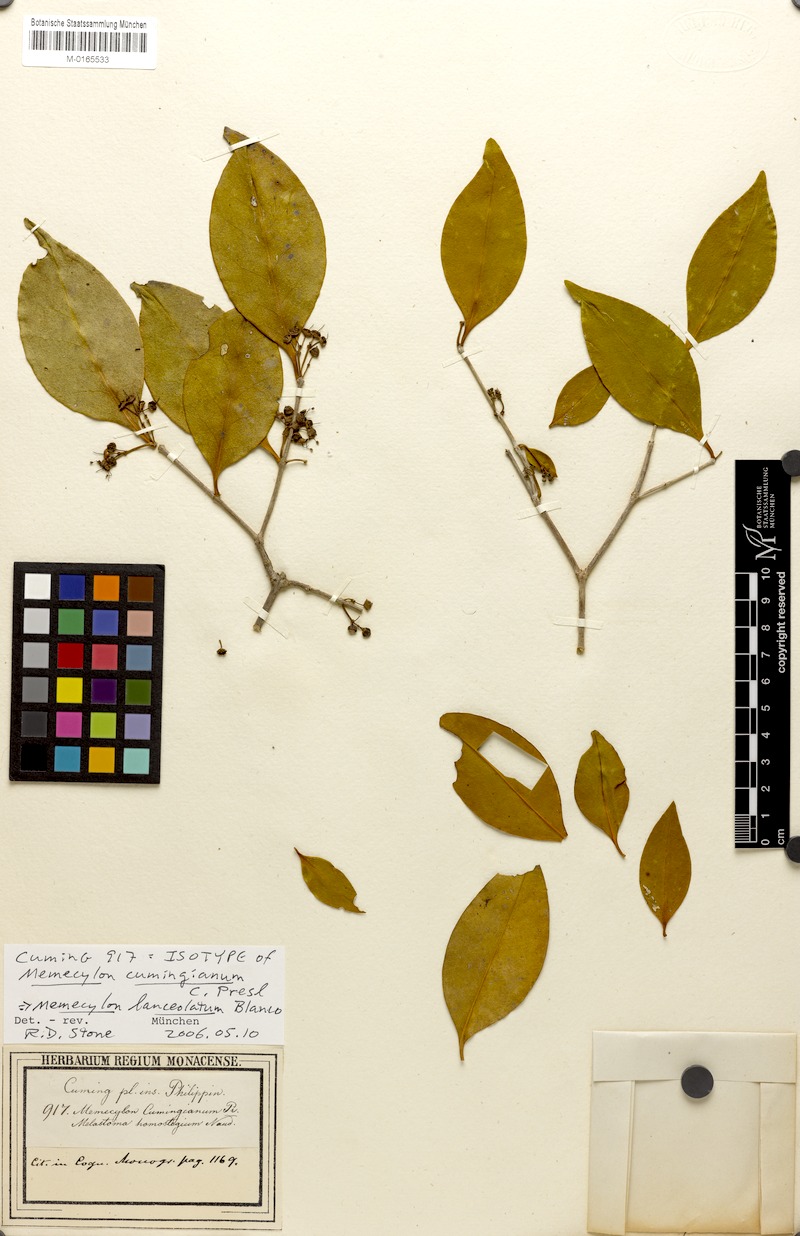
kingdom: Plantae
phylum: Tracheophyta
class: Magnoliopsida
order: Myrtales
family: Melastomataceae
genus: Memecylon
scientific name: Memecylon lanceolatum
